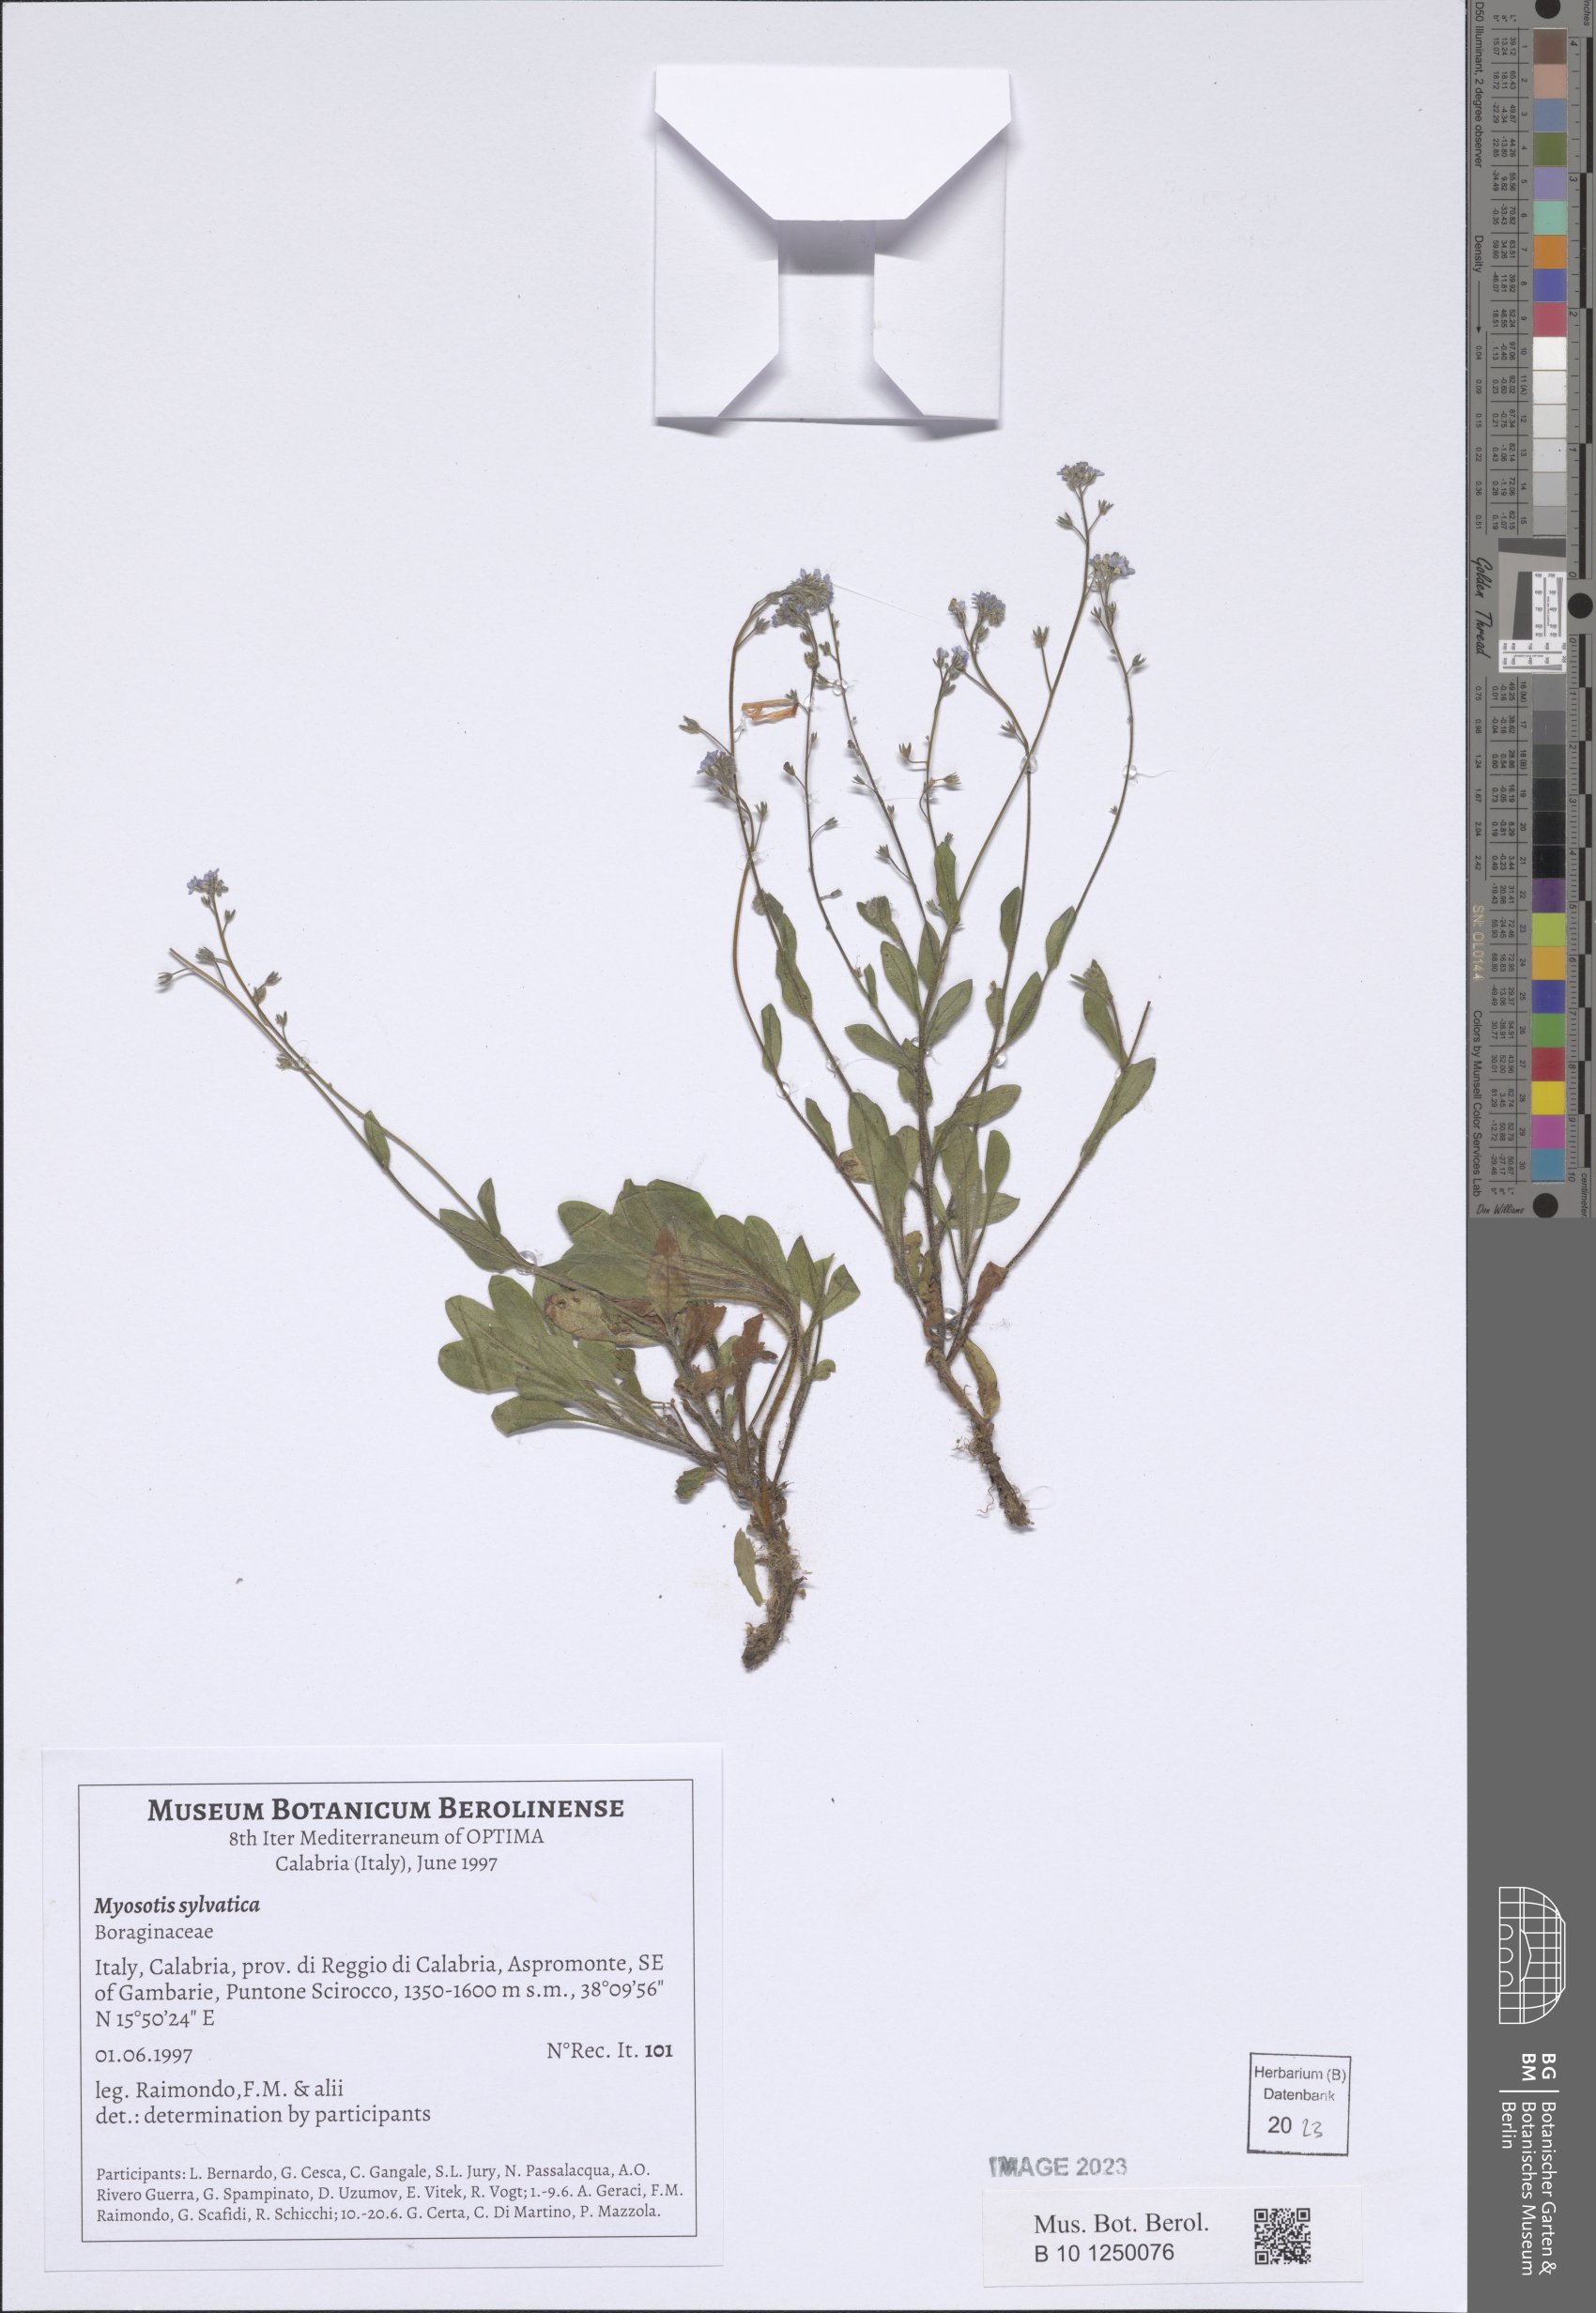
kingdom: Plantae
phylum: Tracheophyta
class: Magnoliopsida
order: Boraginales
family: Boraginaceae
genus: Myosotis
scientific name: Myosotis sylvatica
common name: Wood forget-me-not
